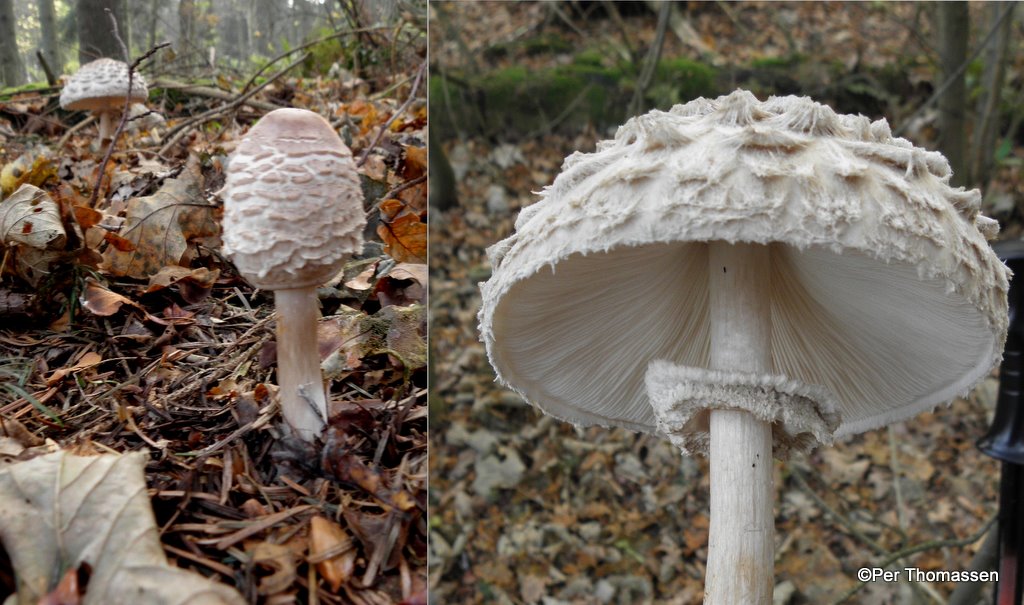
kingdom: Fungi
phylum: Basidiomycota
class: Agaricomycetes
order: Agaricales
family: Agaricaceae
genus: Chlorophyllum
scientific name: Chlorophyllum olivieri
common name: almindelig rabarberhat
